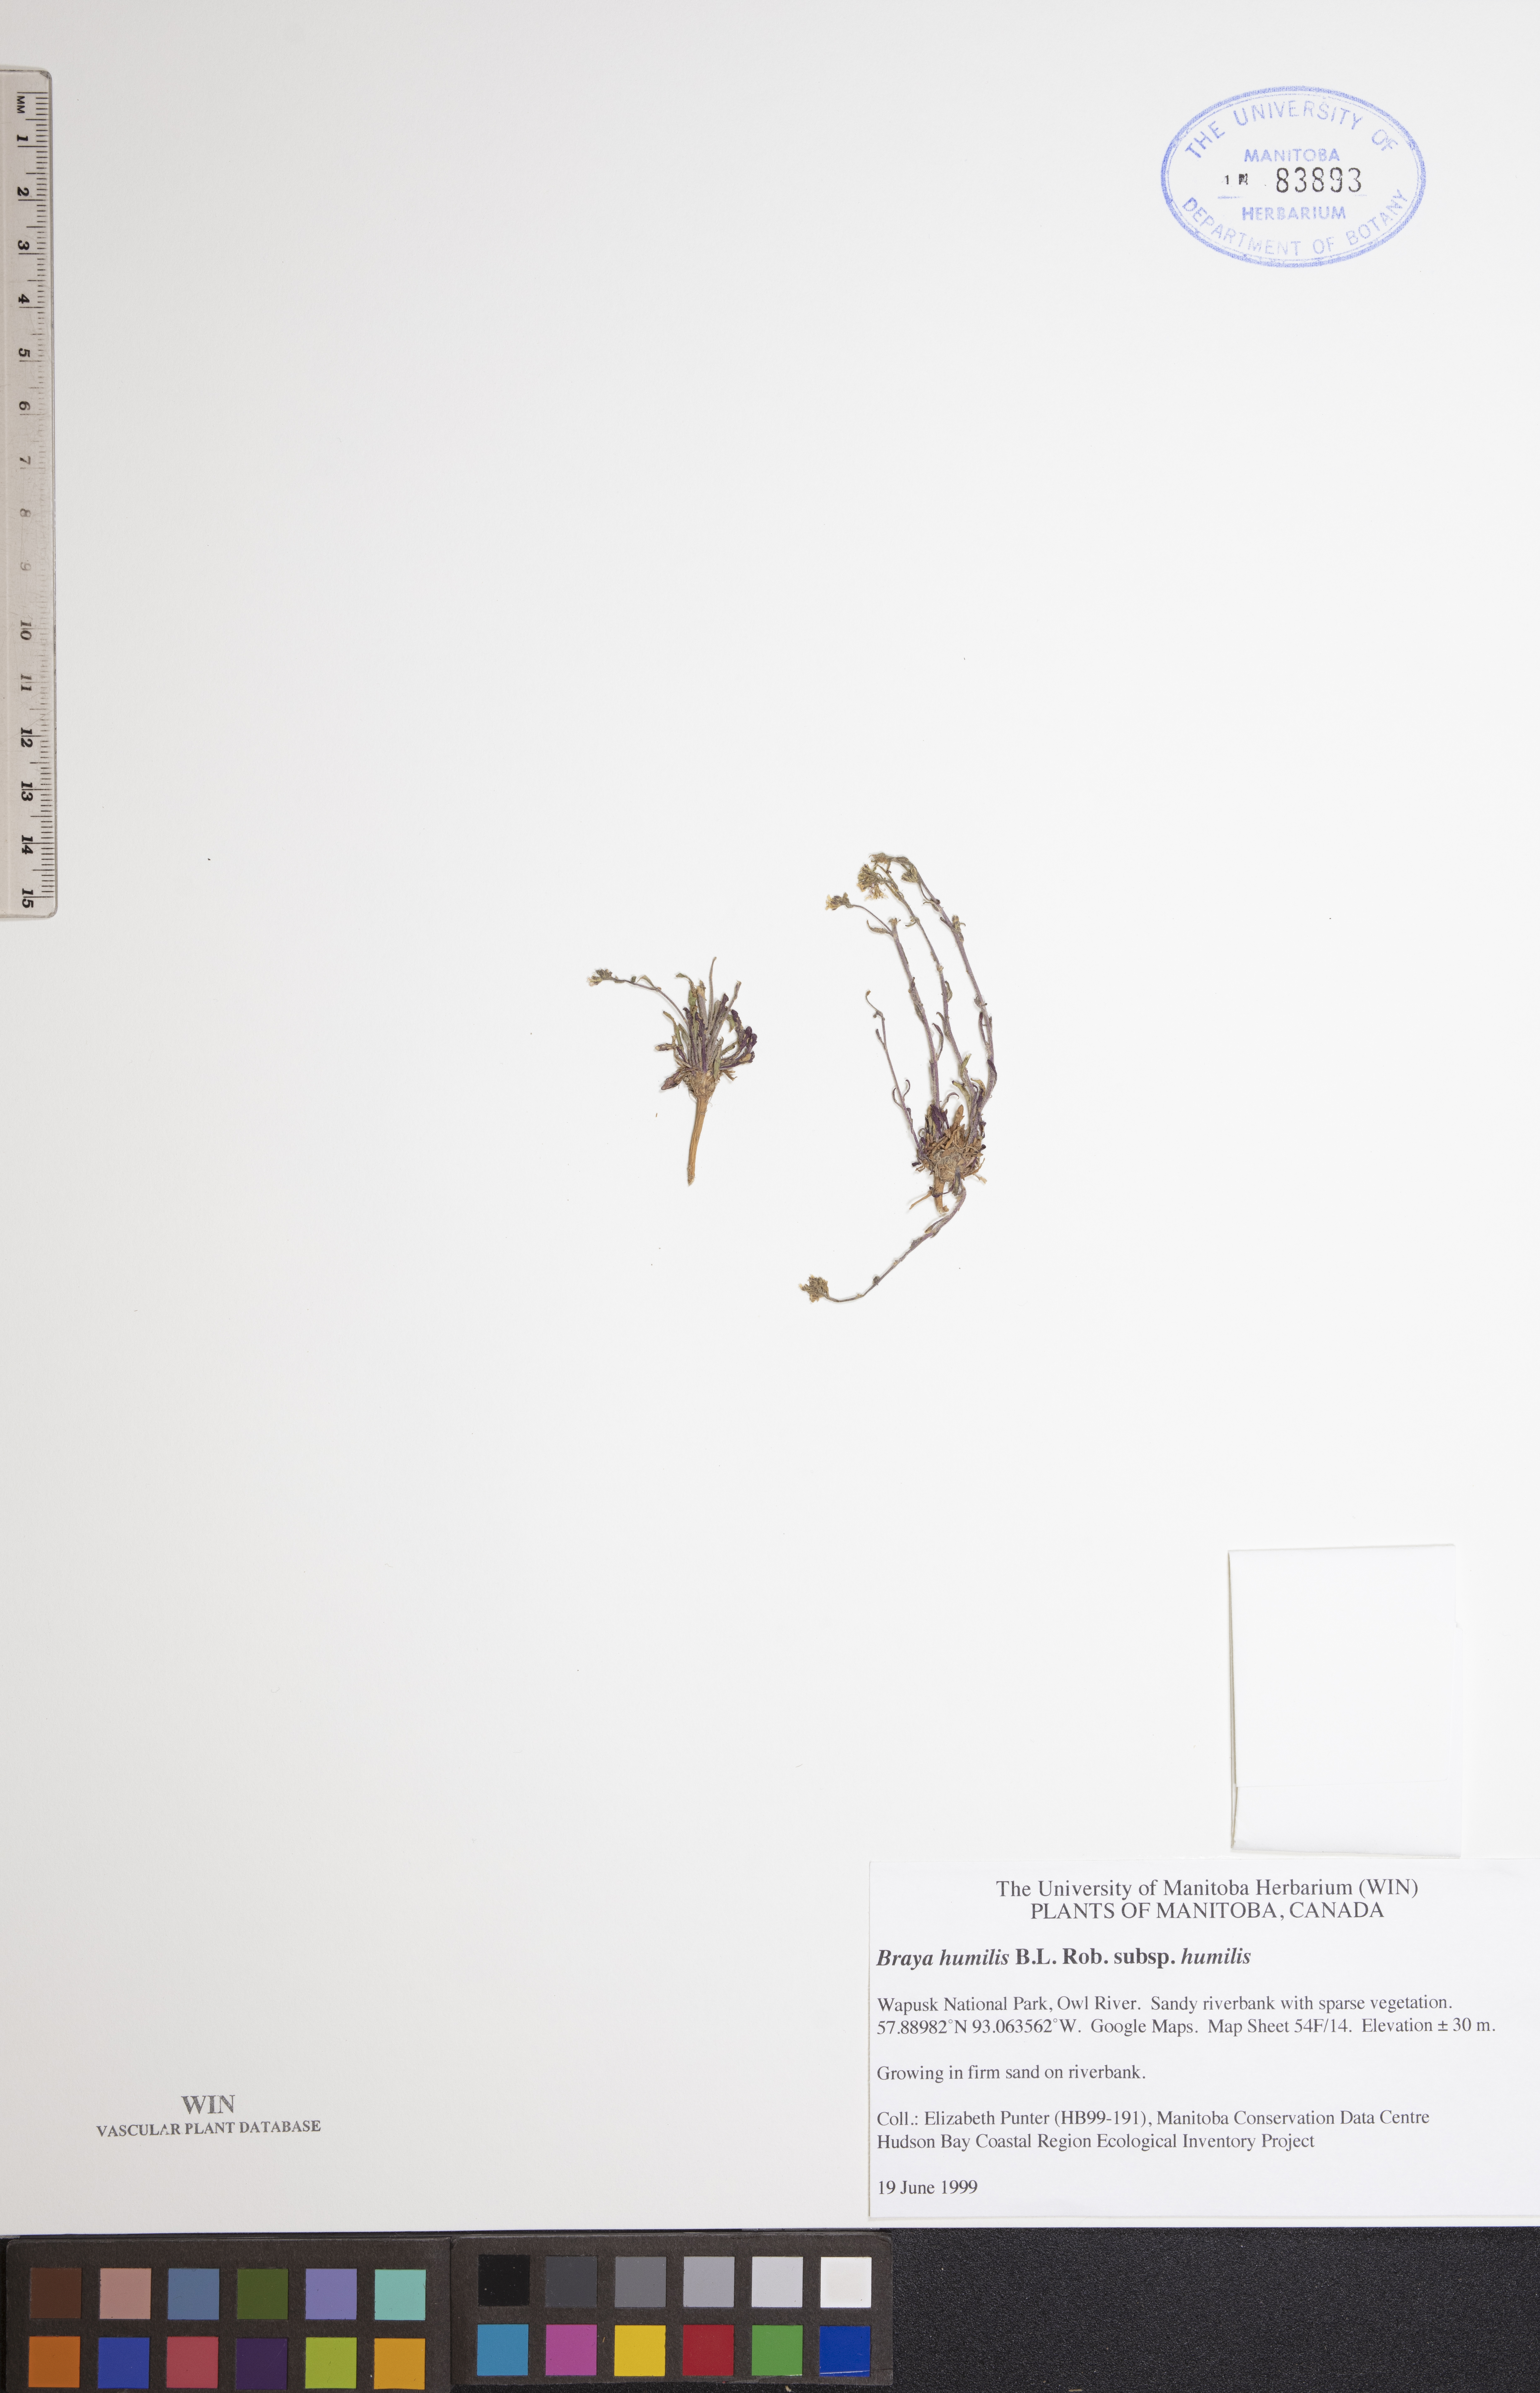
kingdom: Plantae
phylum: Tracheophyta
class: Magnoliopsida
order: Brassicales
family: Brassicaceae
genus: Braya
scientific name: Braya humilis
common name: Alpine northern rockcress
